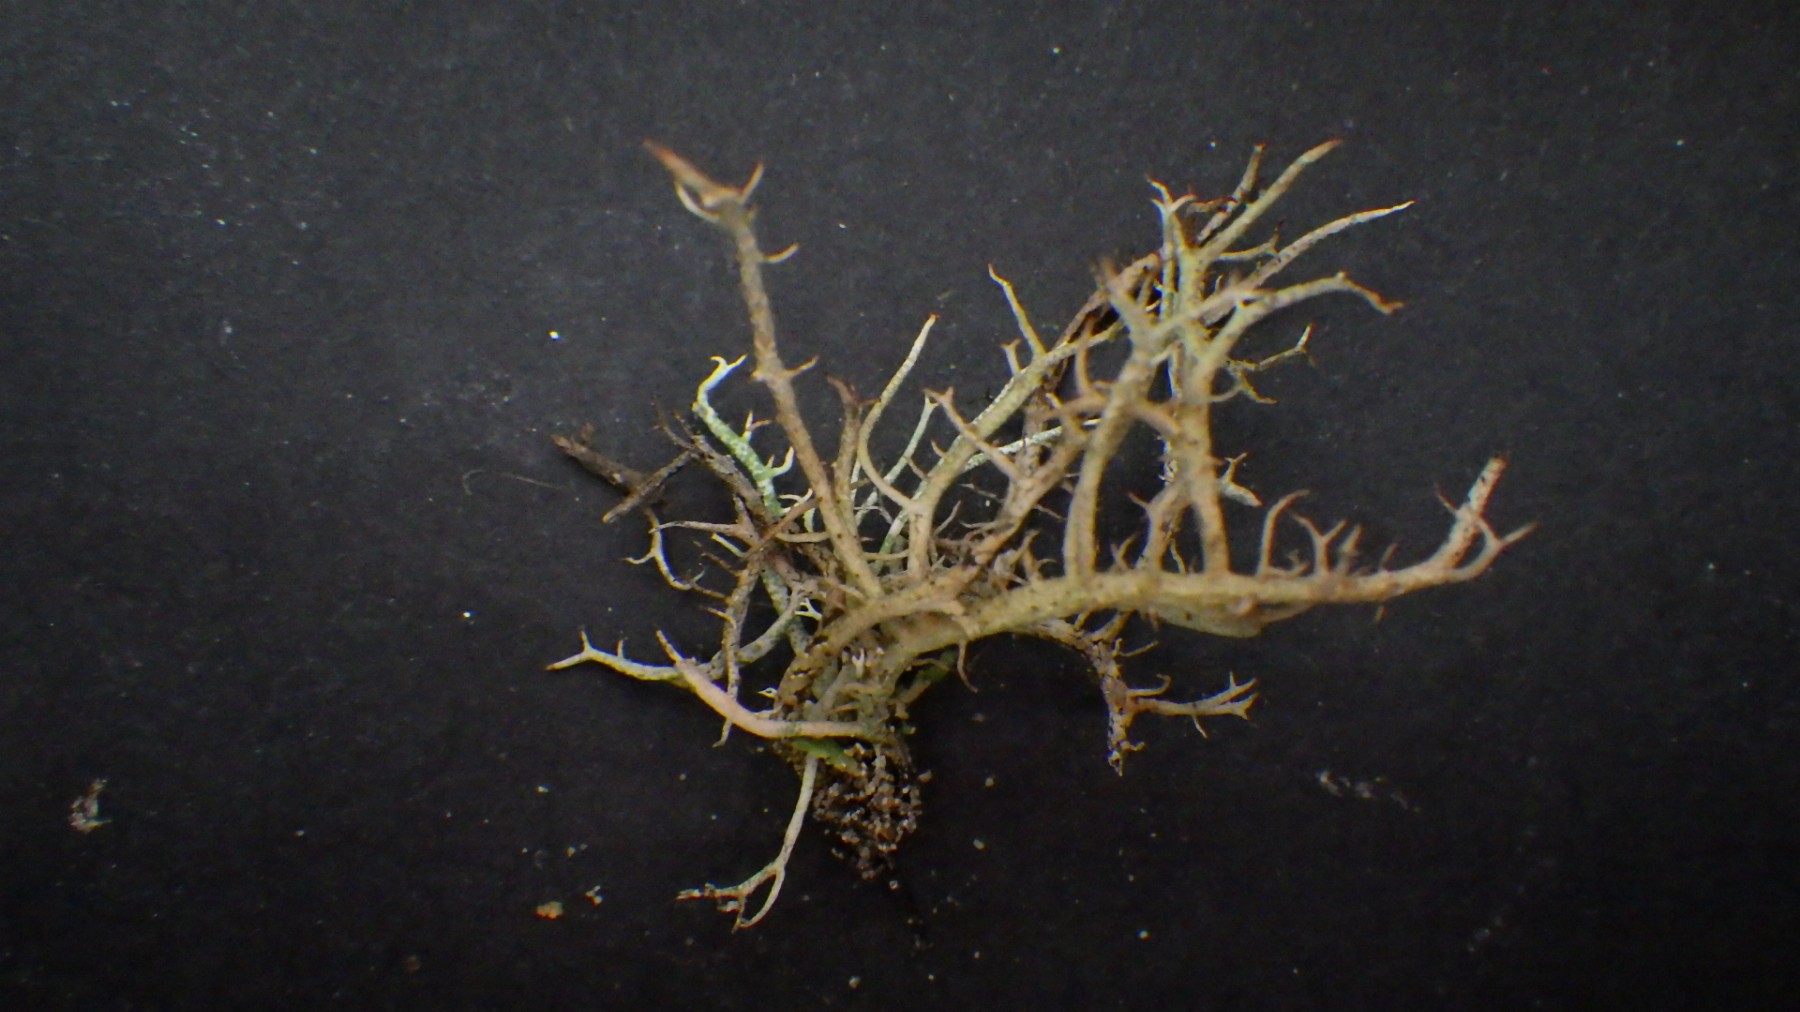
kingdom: Fungi
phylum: Ascomycota
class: Lecanoromycetes
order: Lecanorales
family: Cladoniaceae
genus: Cladonia
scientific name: Cladonia furcata
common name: kløftet bægerlav
